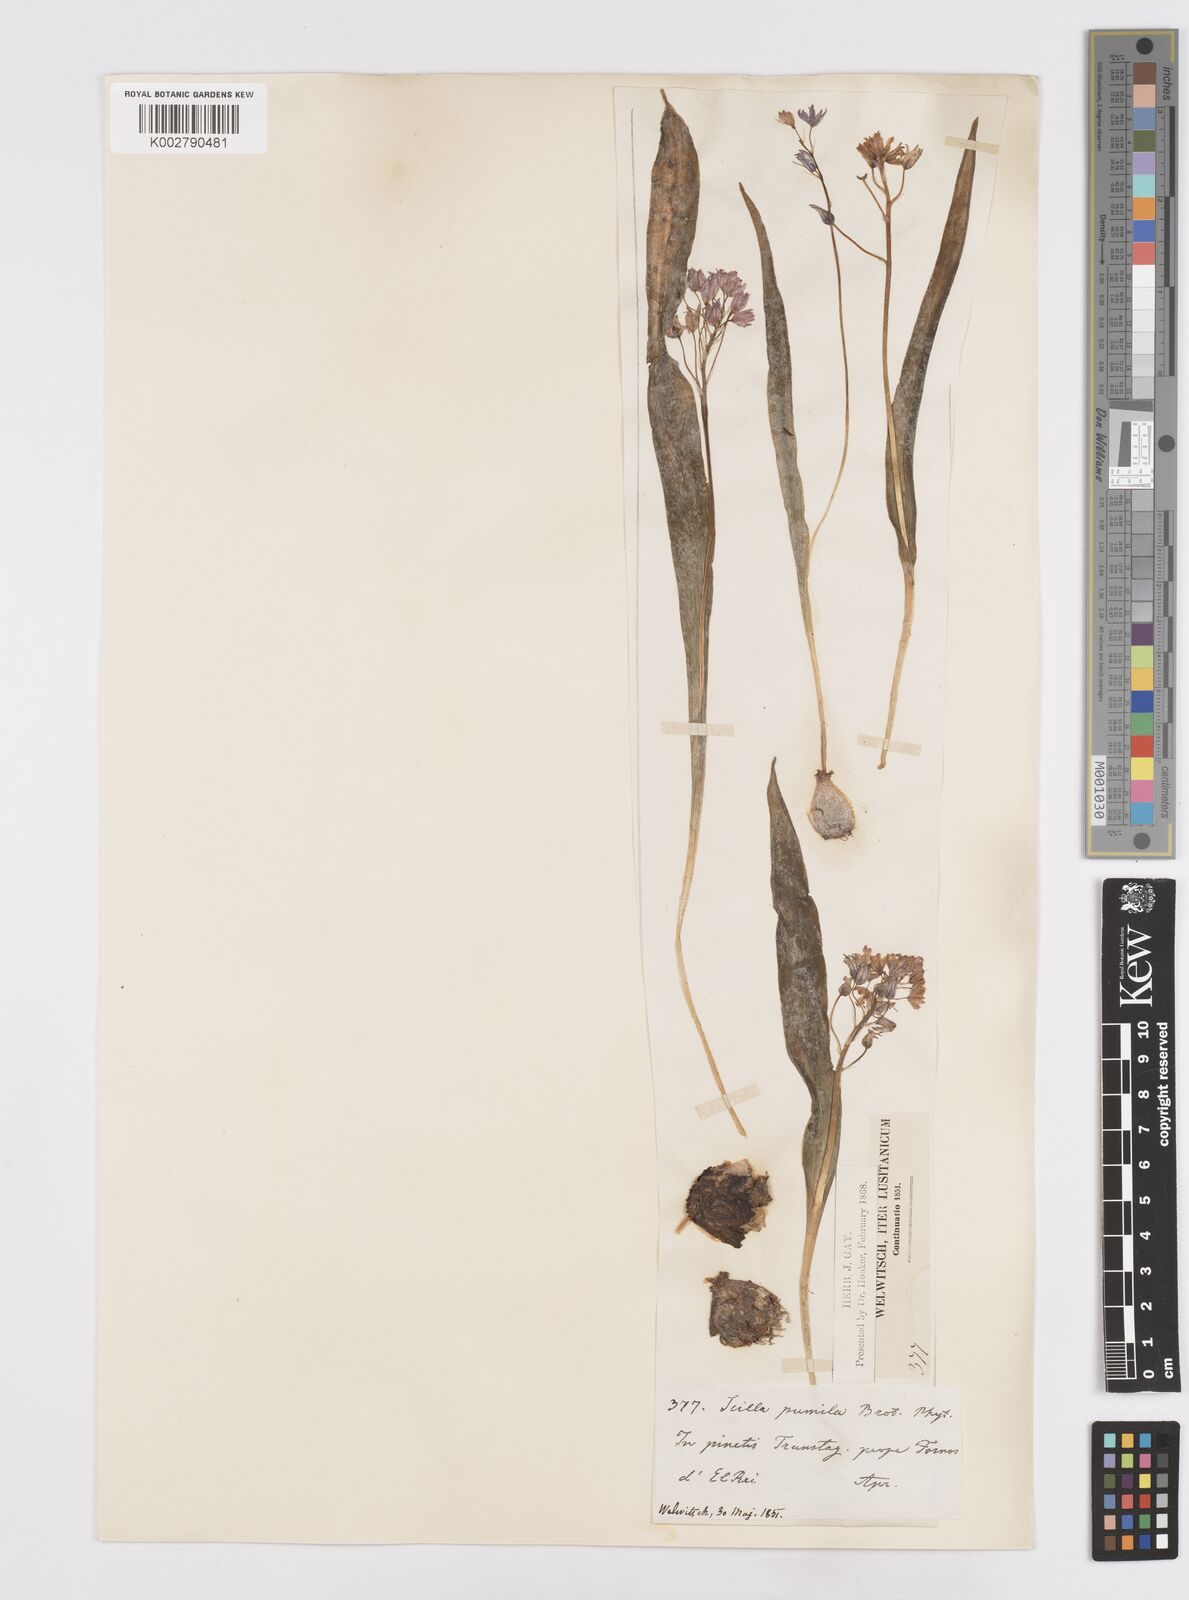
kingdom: Plantae
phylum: Tracheophyta
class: Liliopsida
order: Asparagales
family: Asparagaceae
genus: Scilla
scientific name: Scilla monophyllos
